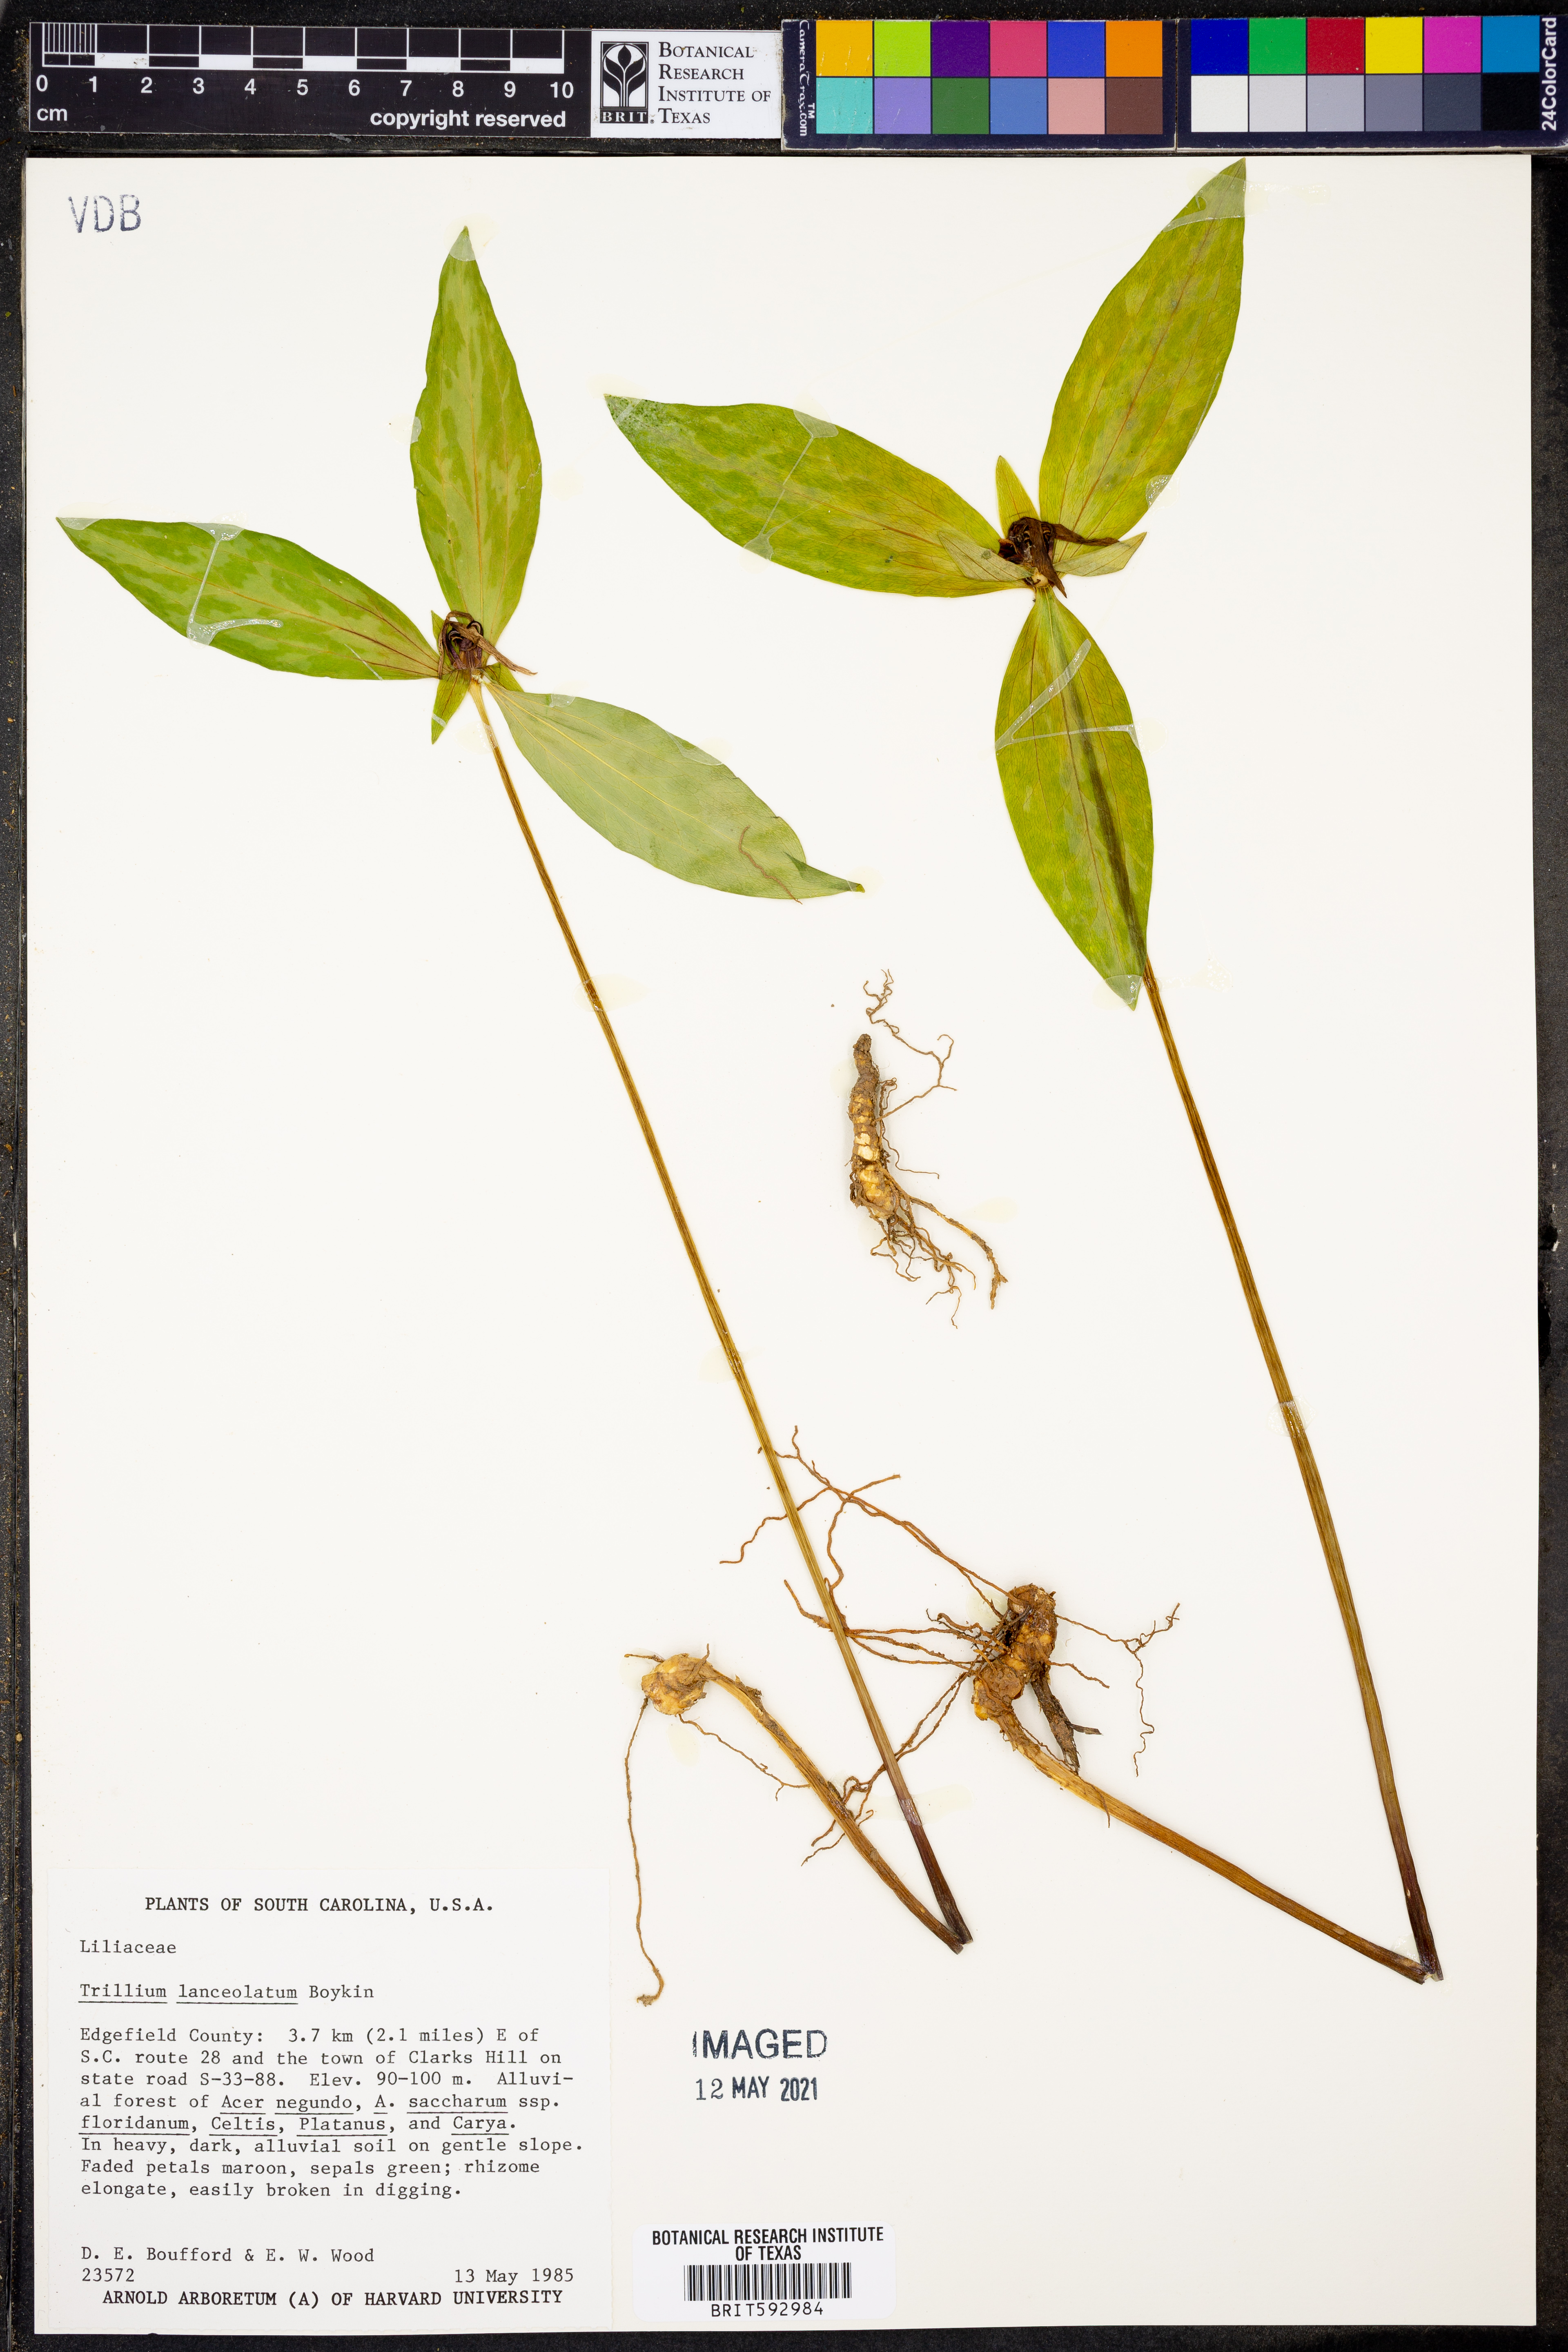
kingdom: Plantae
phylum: Tracheophyta
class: Liliopsida
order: Liliales
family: Melanthiaceae
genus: Trillium
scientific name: Trillium lancifolium
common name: Lance-leaved trillium
